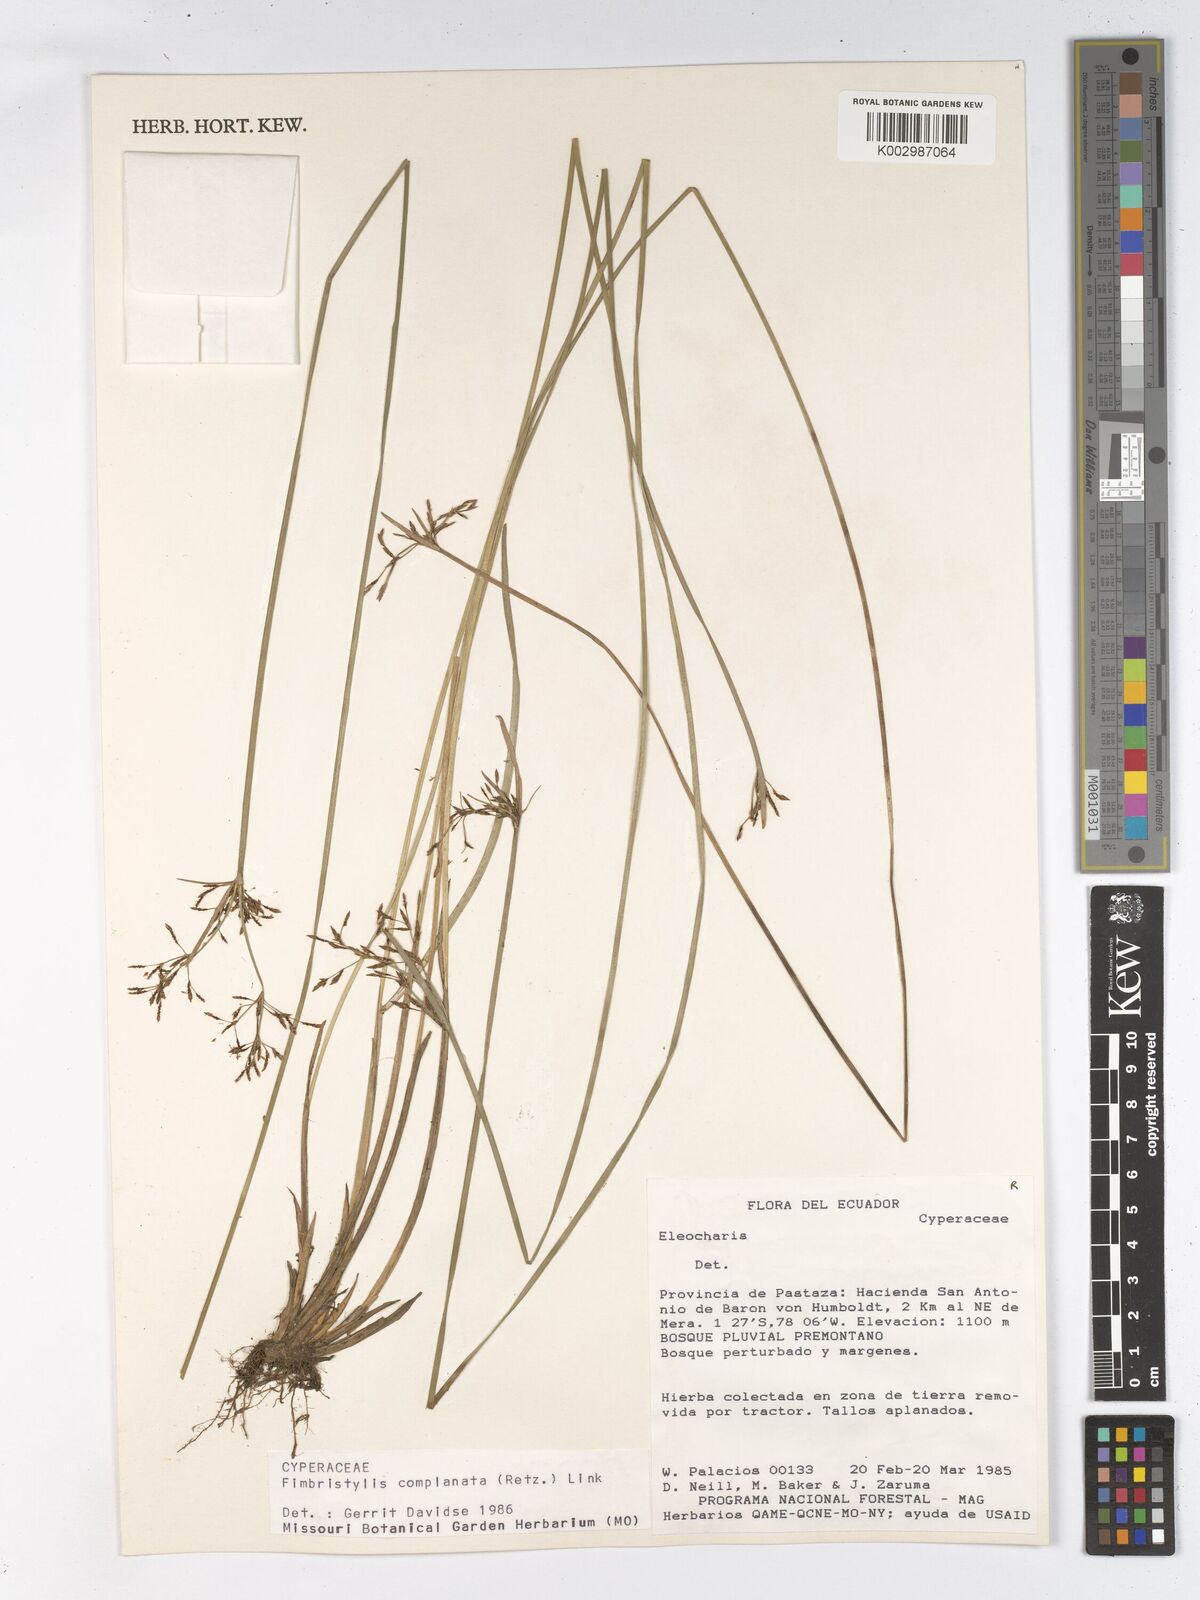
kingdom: Plantae
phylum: Tracheophyta
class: Liliopsida
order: Poales
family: Cyperaceae
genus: Fimbristylis
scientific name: Fimbristylis complanata
